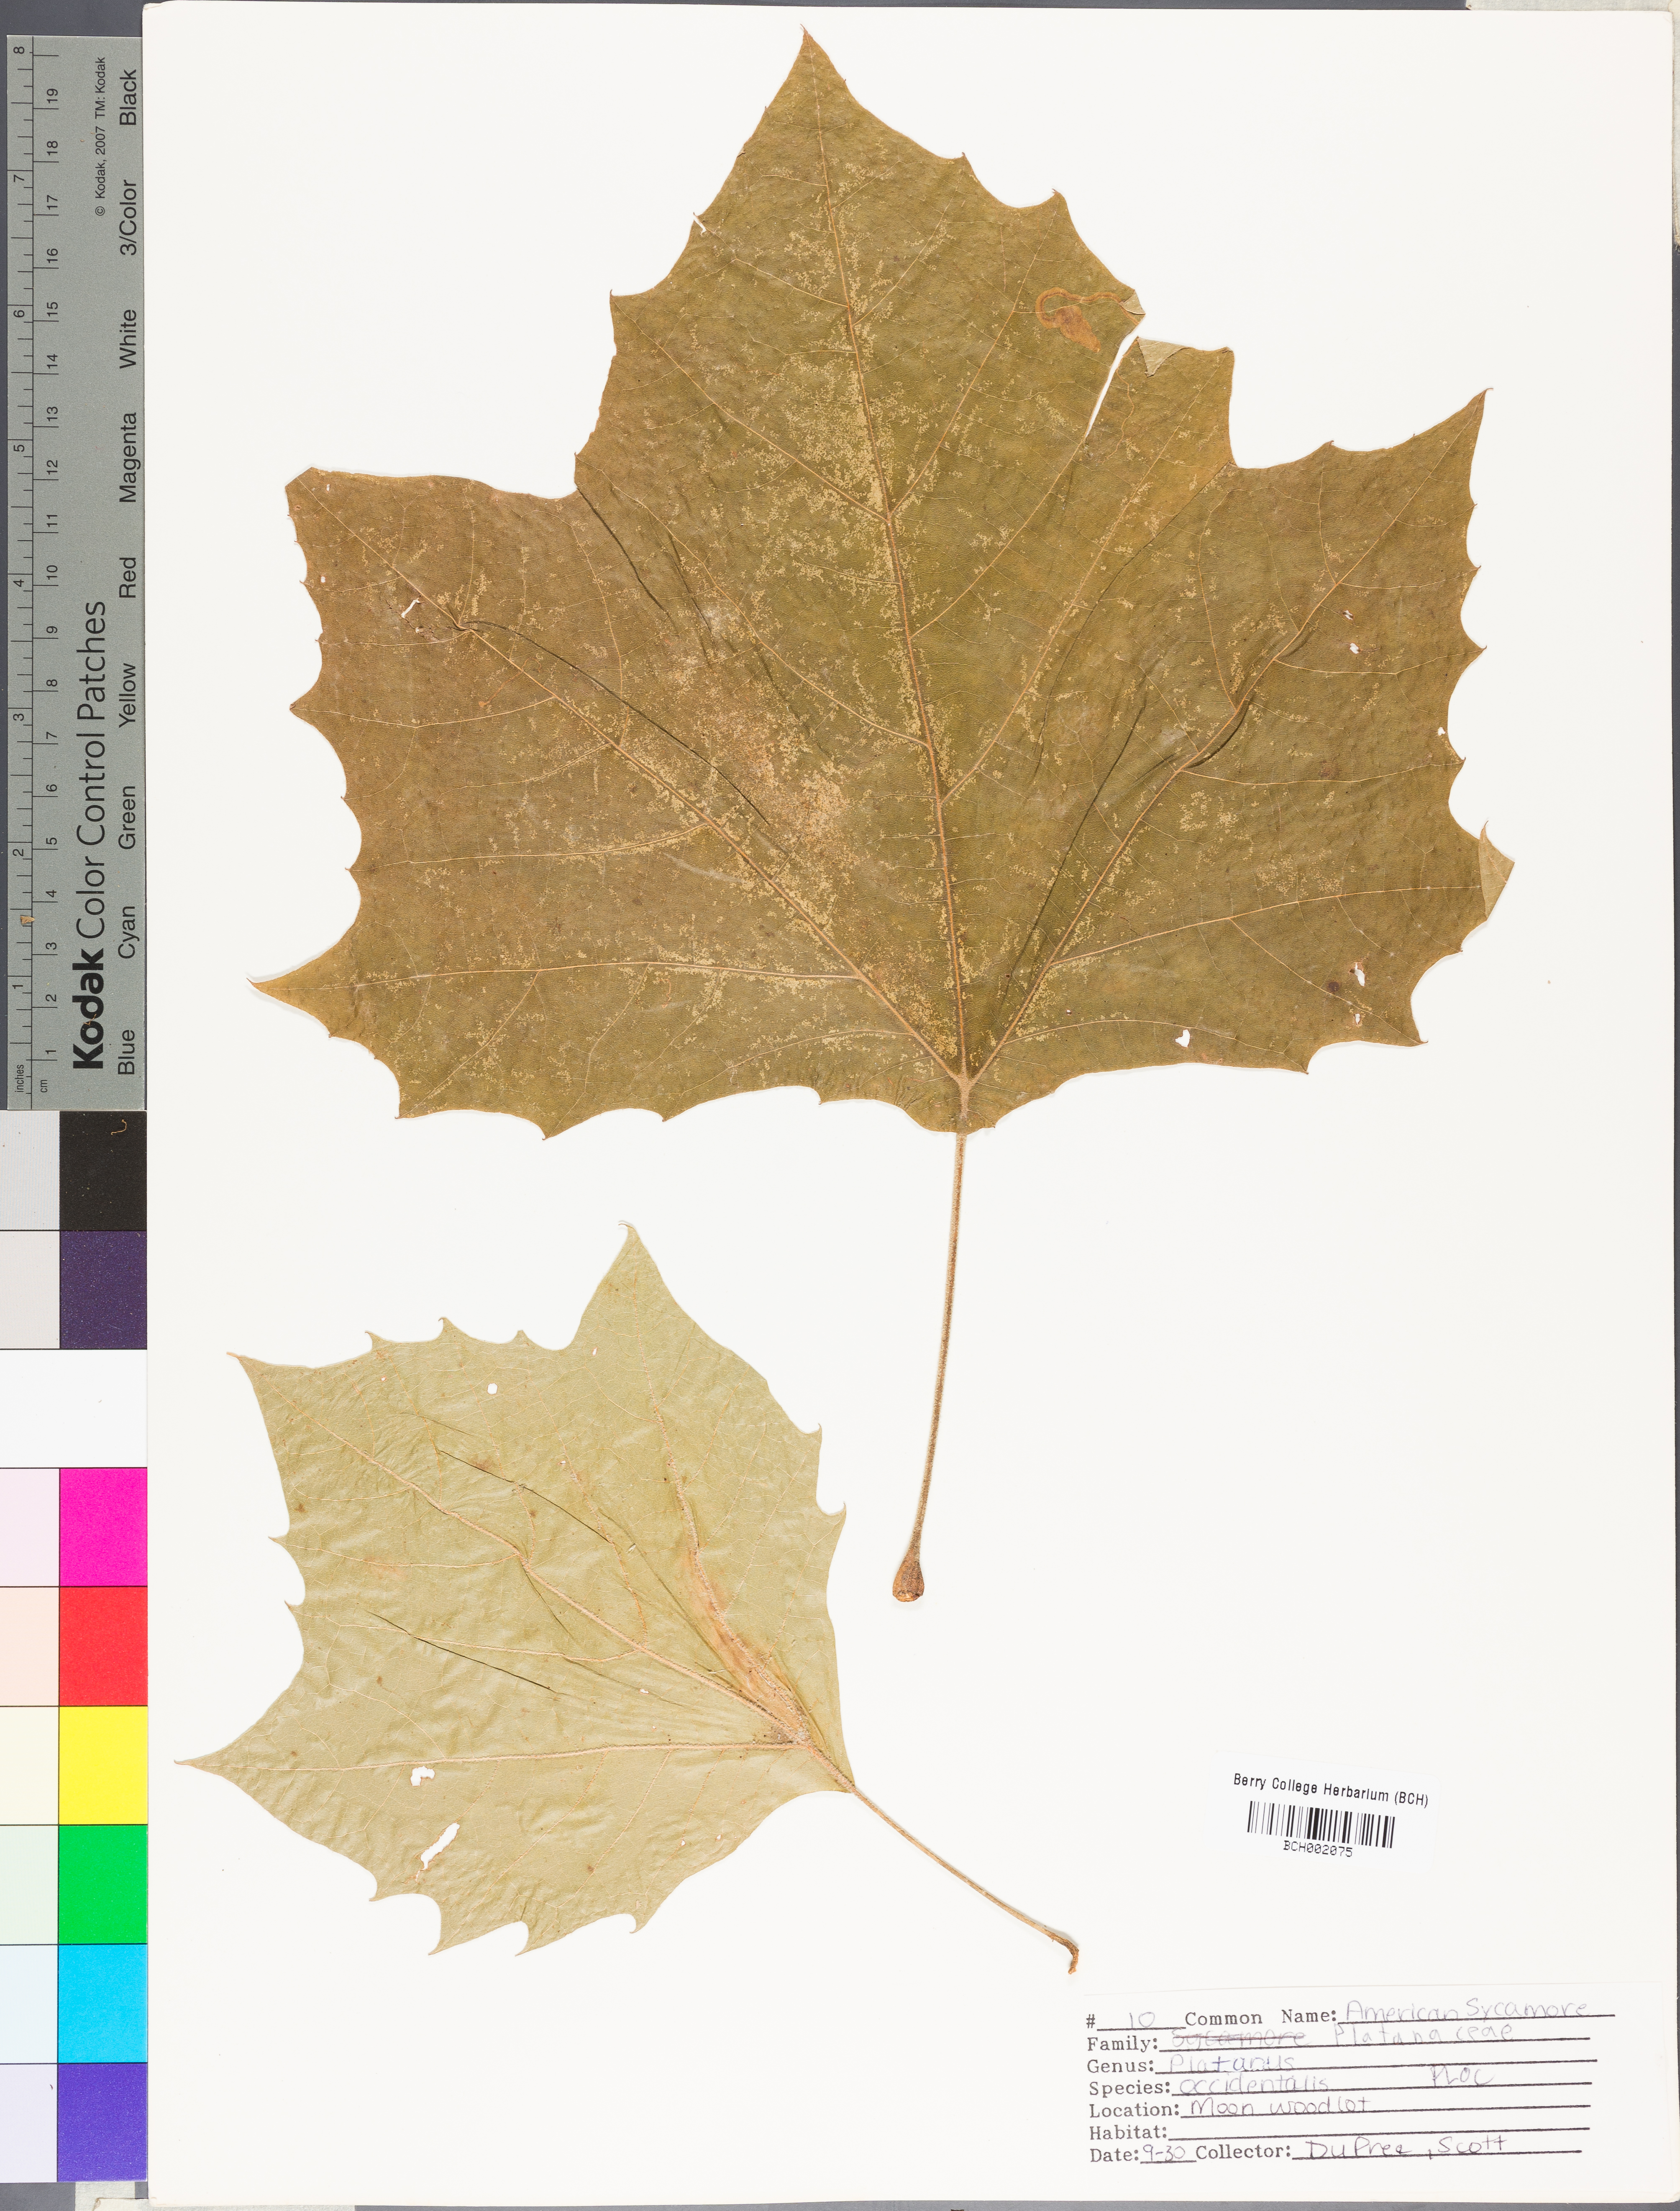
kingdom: Plantae
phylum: Tracheophyta
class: Magnoliopsida
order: Proteales
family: Platanaceae
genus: Platanus
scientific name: Platanus occidentalis
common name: American sycamore
